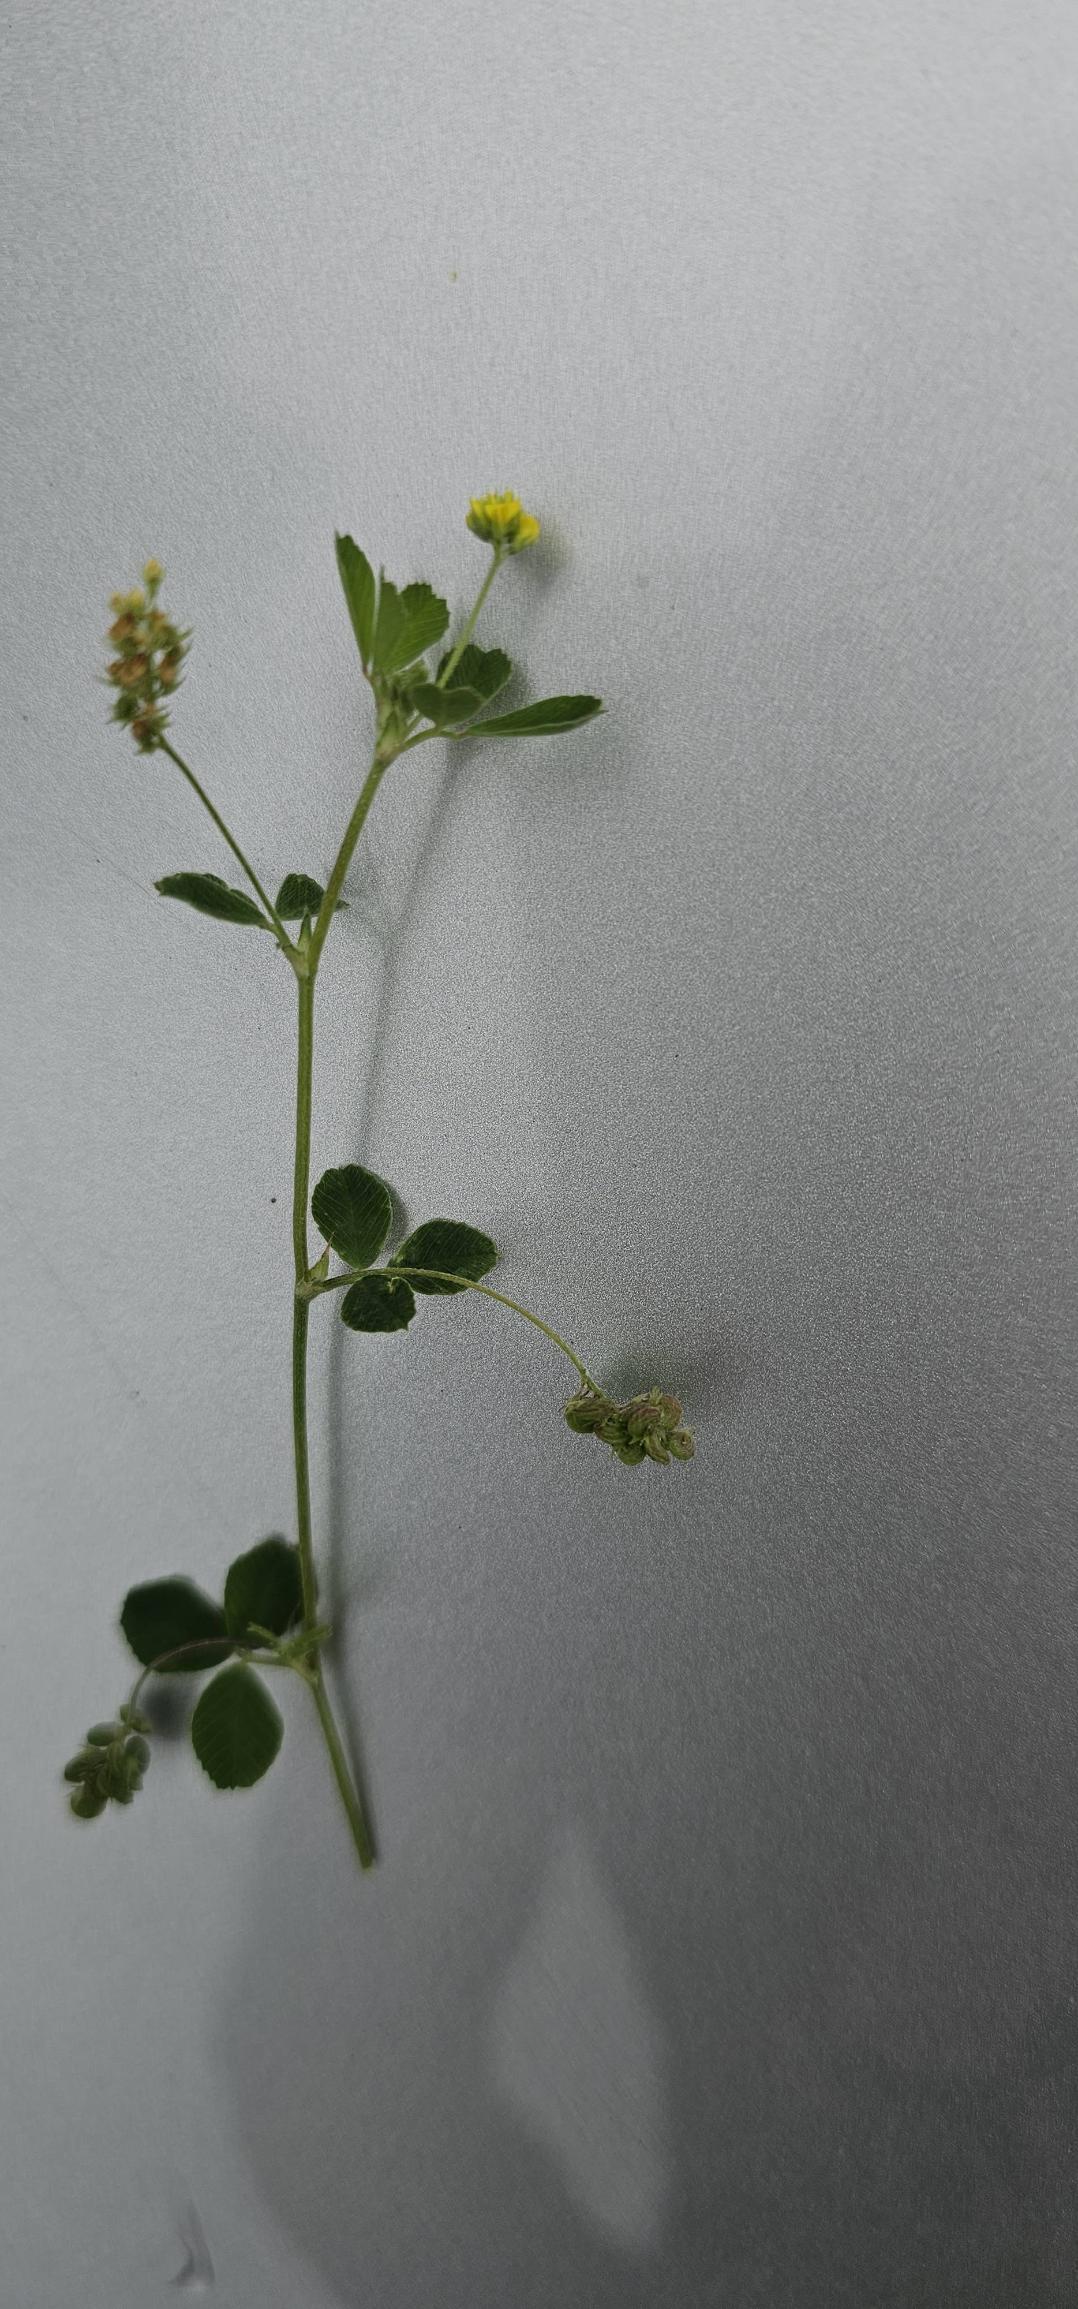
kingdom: Plantae
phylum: Tracheophyta
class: Magnoliopsida
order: Fabales
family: Fabaceae
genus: Medicago
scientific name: Medicago lupulina
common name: Humle-sneglebælg
